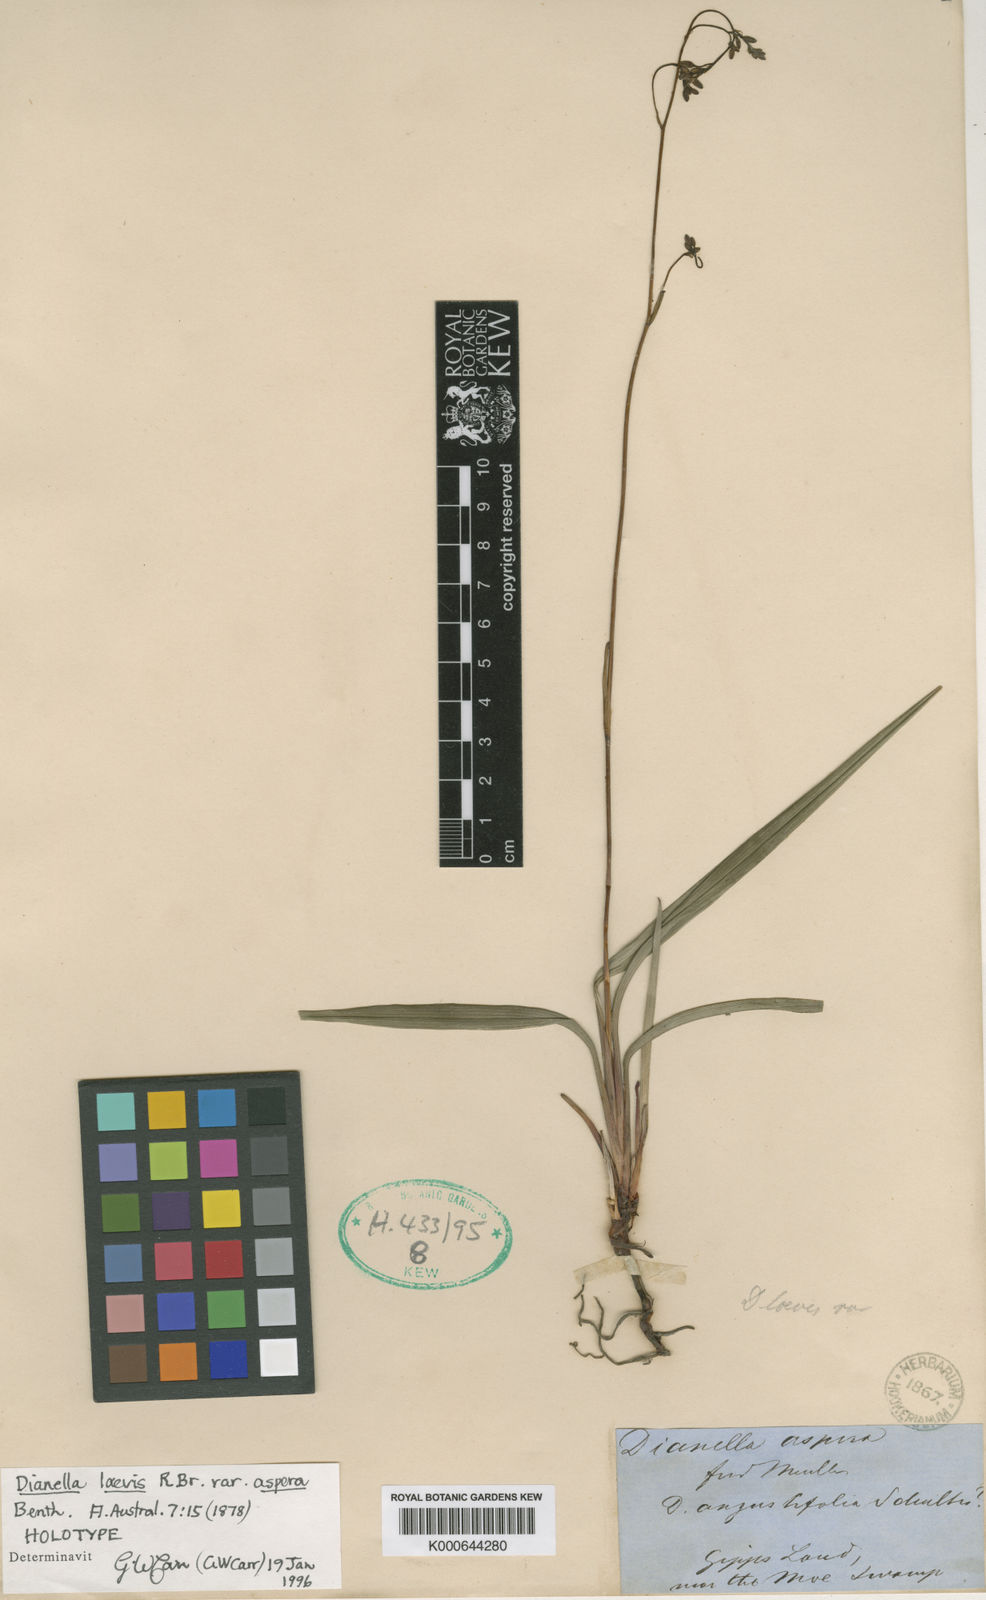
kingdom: Plantae
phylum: Tracheophyta
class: Liliopsida
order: Asparagales
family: Asphodelaceae
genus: Dianella
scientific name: Dianella caerulea
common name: Blue flax-lily
